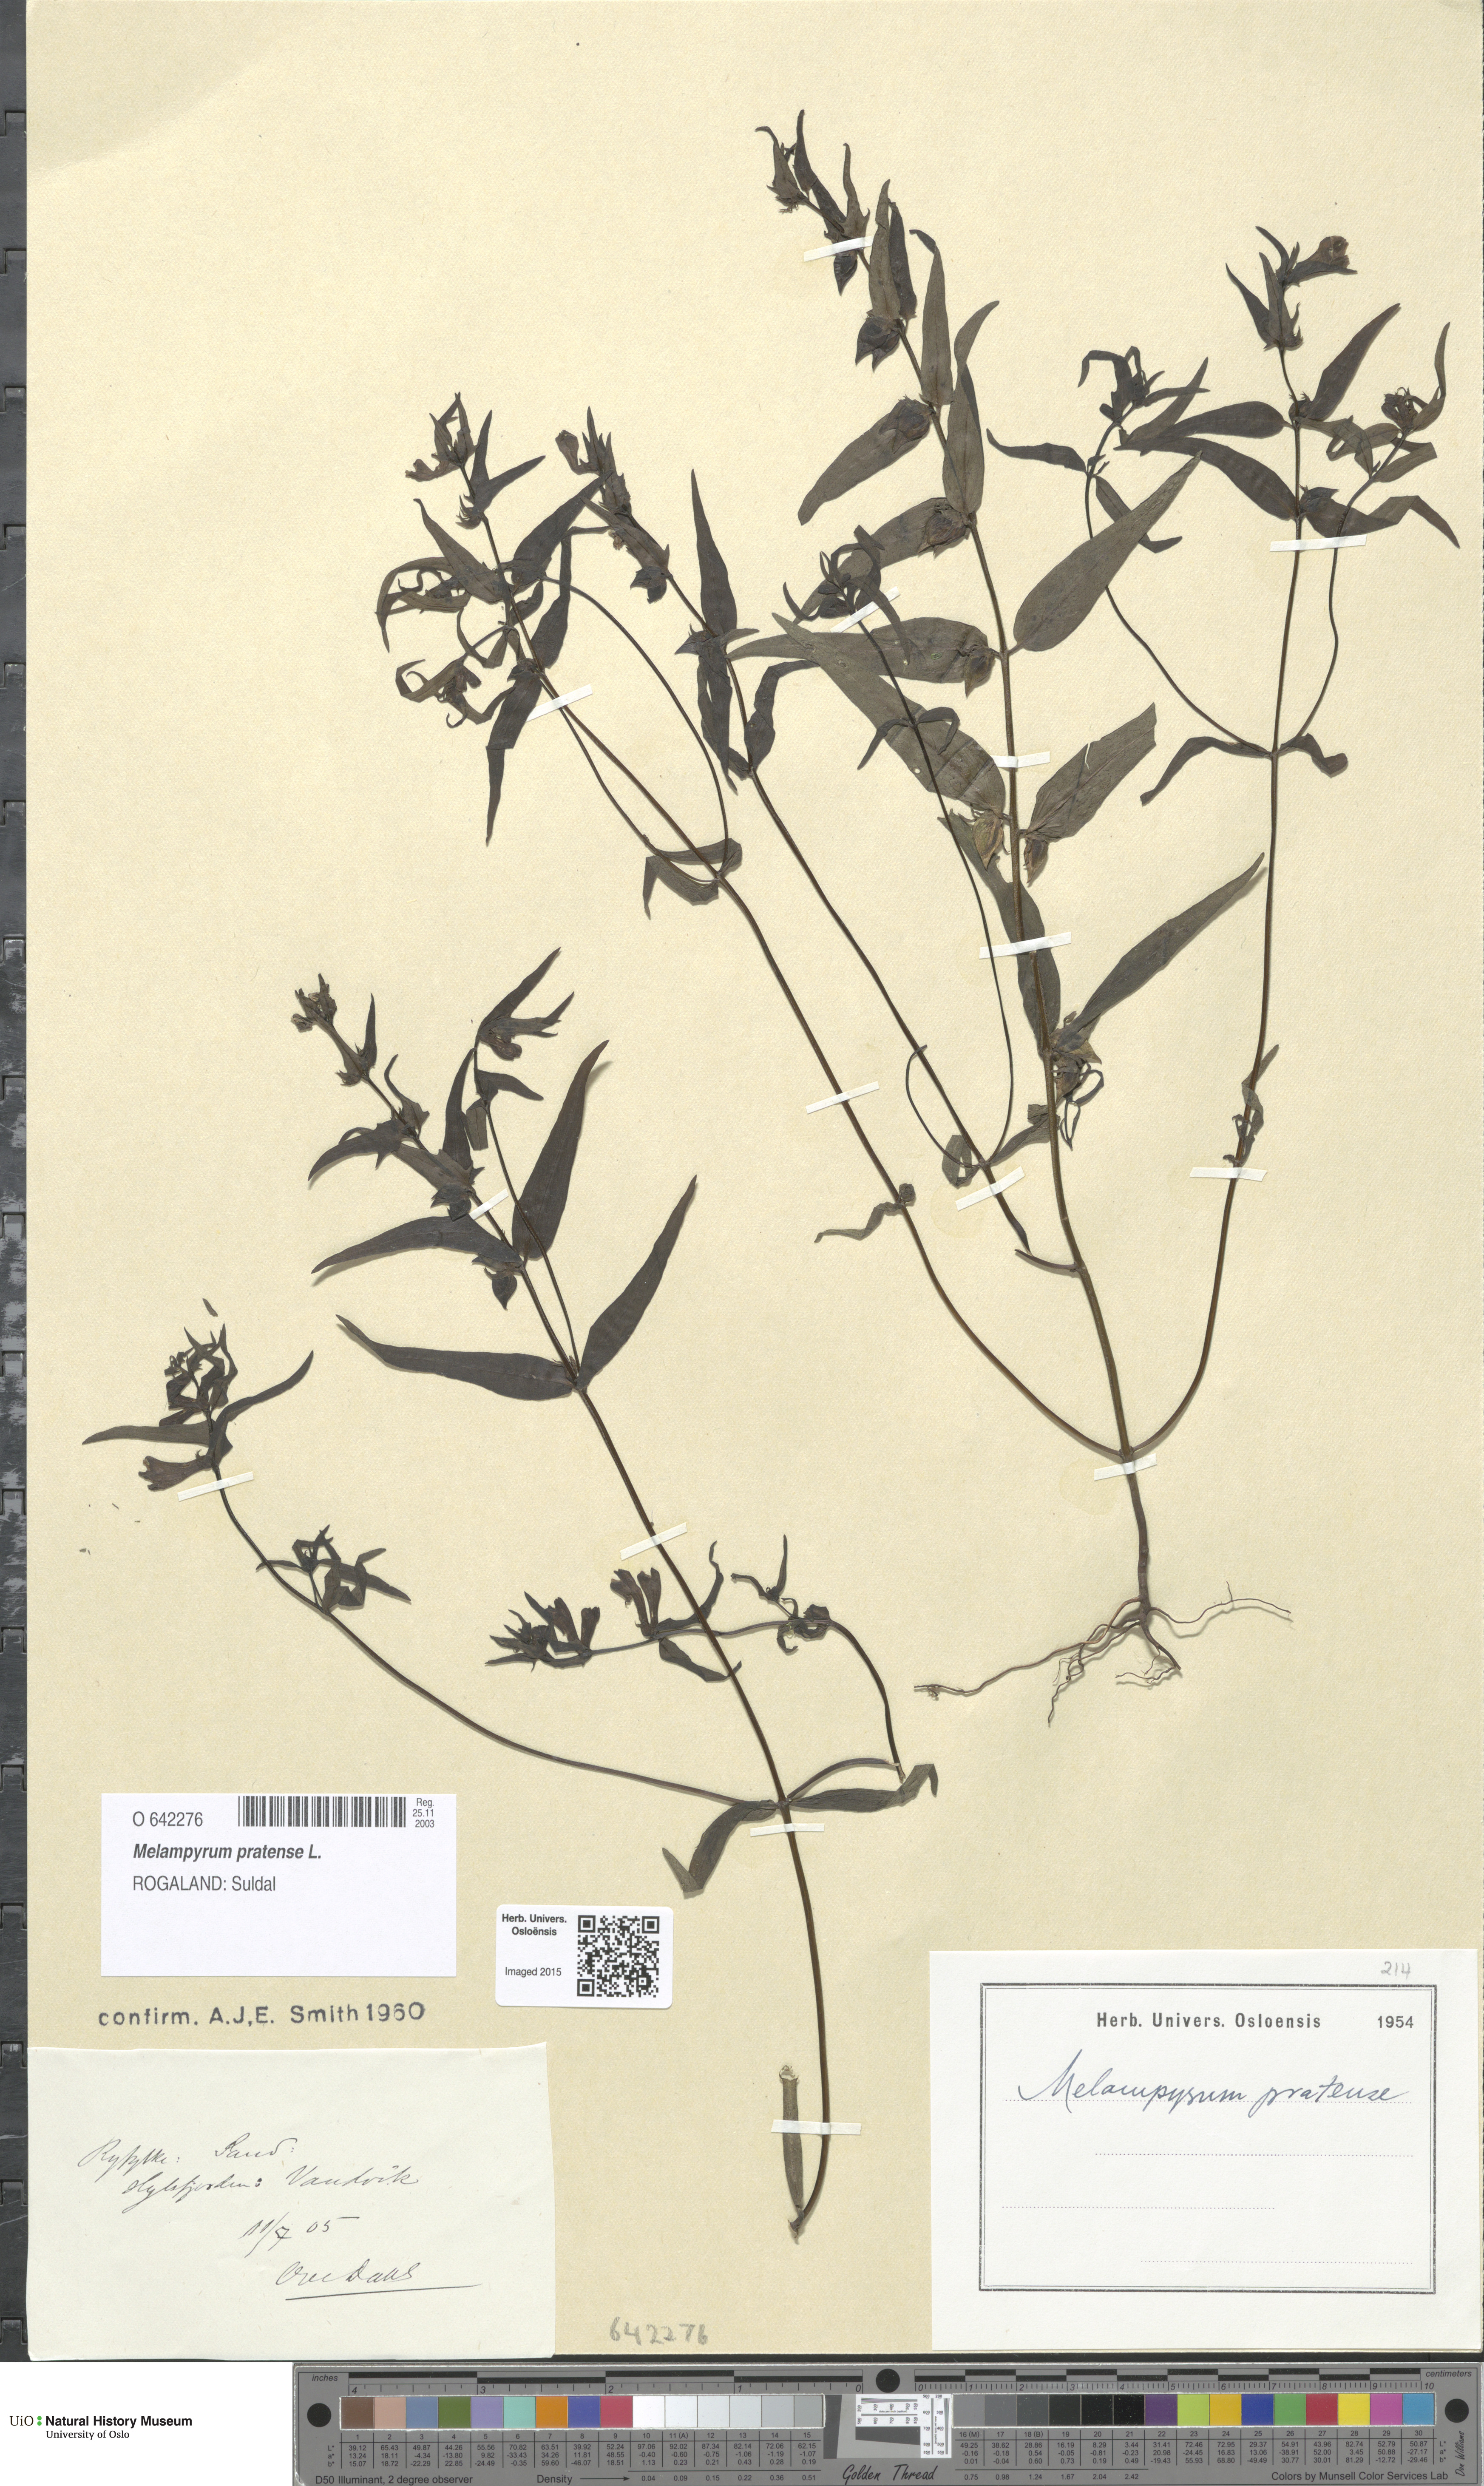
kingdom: Plantae
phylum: Tracheophyta
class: Magnoliopsida
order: Lamiales
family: Orobanchaceae
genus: Melampyrum
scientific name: Melampyrum pratense
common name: Common cow-wheat
